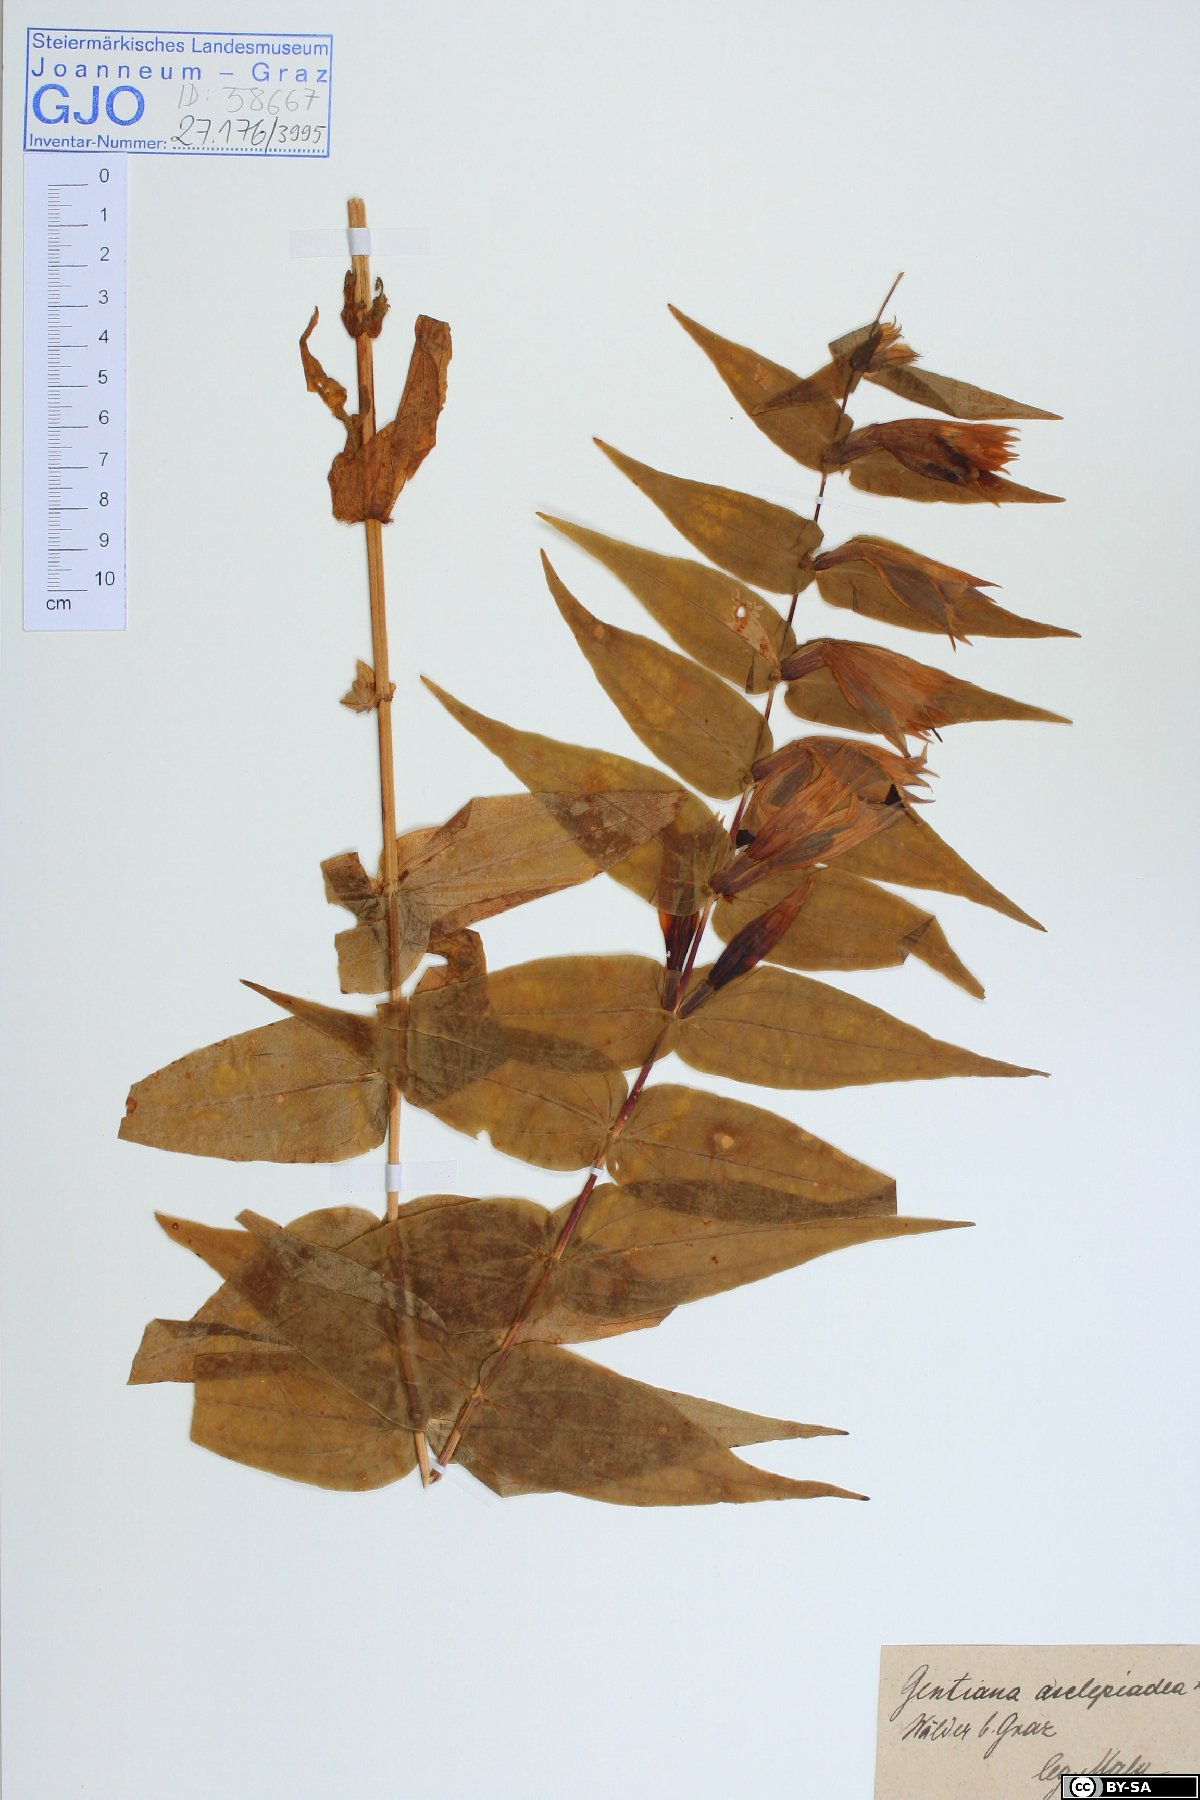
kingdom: Plantae
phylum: Tracheophyta
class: Magnoliopsida
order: Gentianales
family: Gentianaceae
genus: Gentiana
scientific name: Gentiana asclepiadea
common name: Willow gentian
